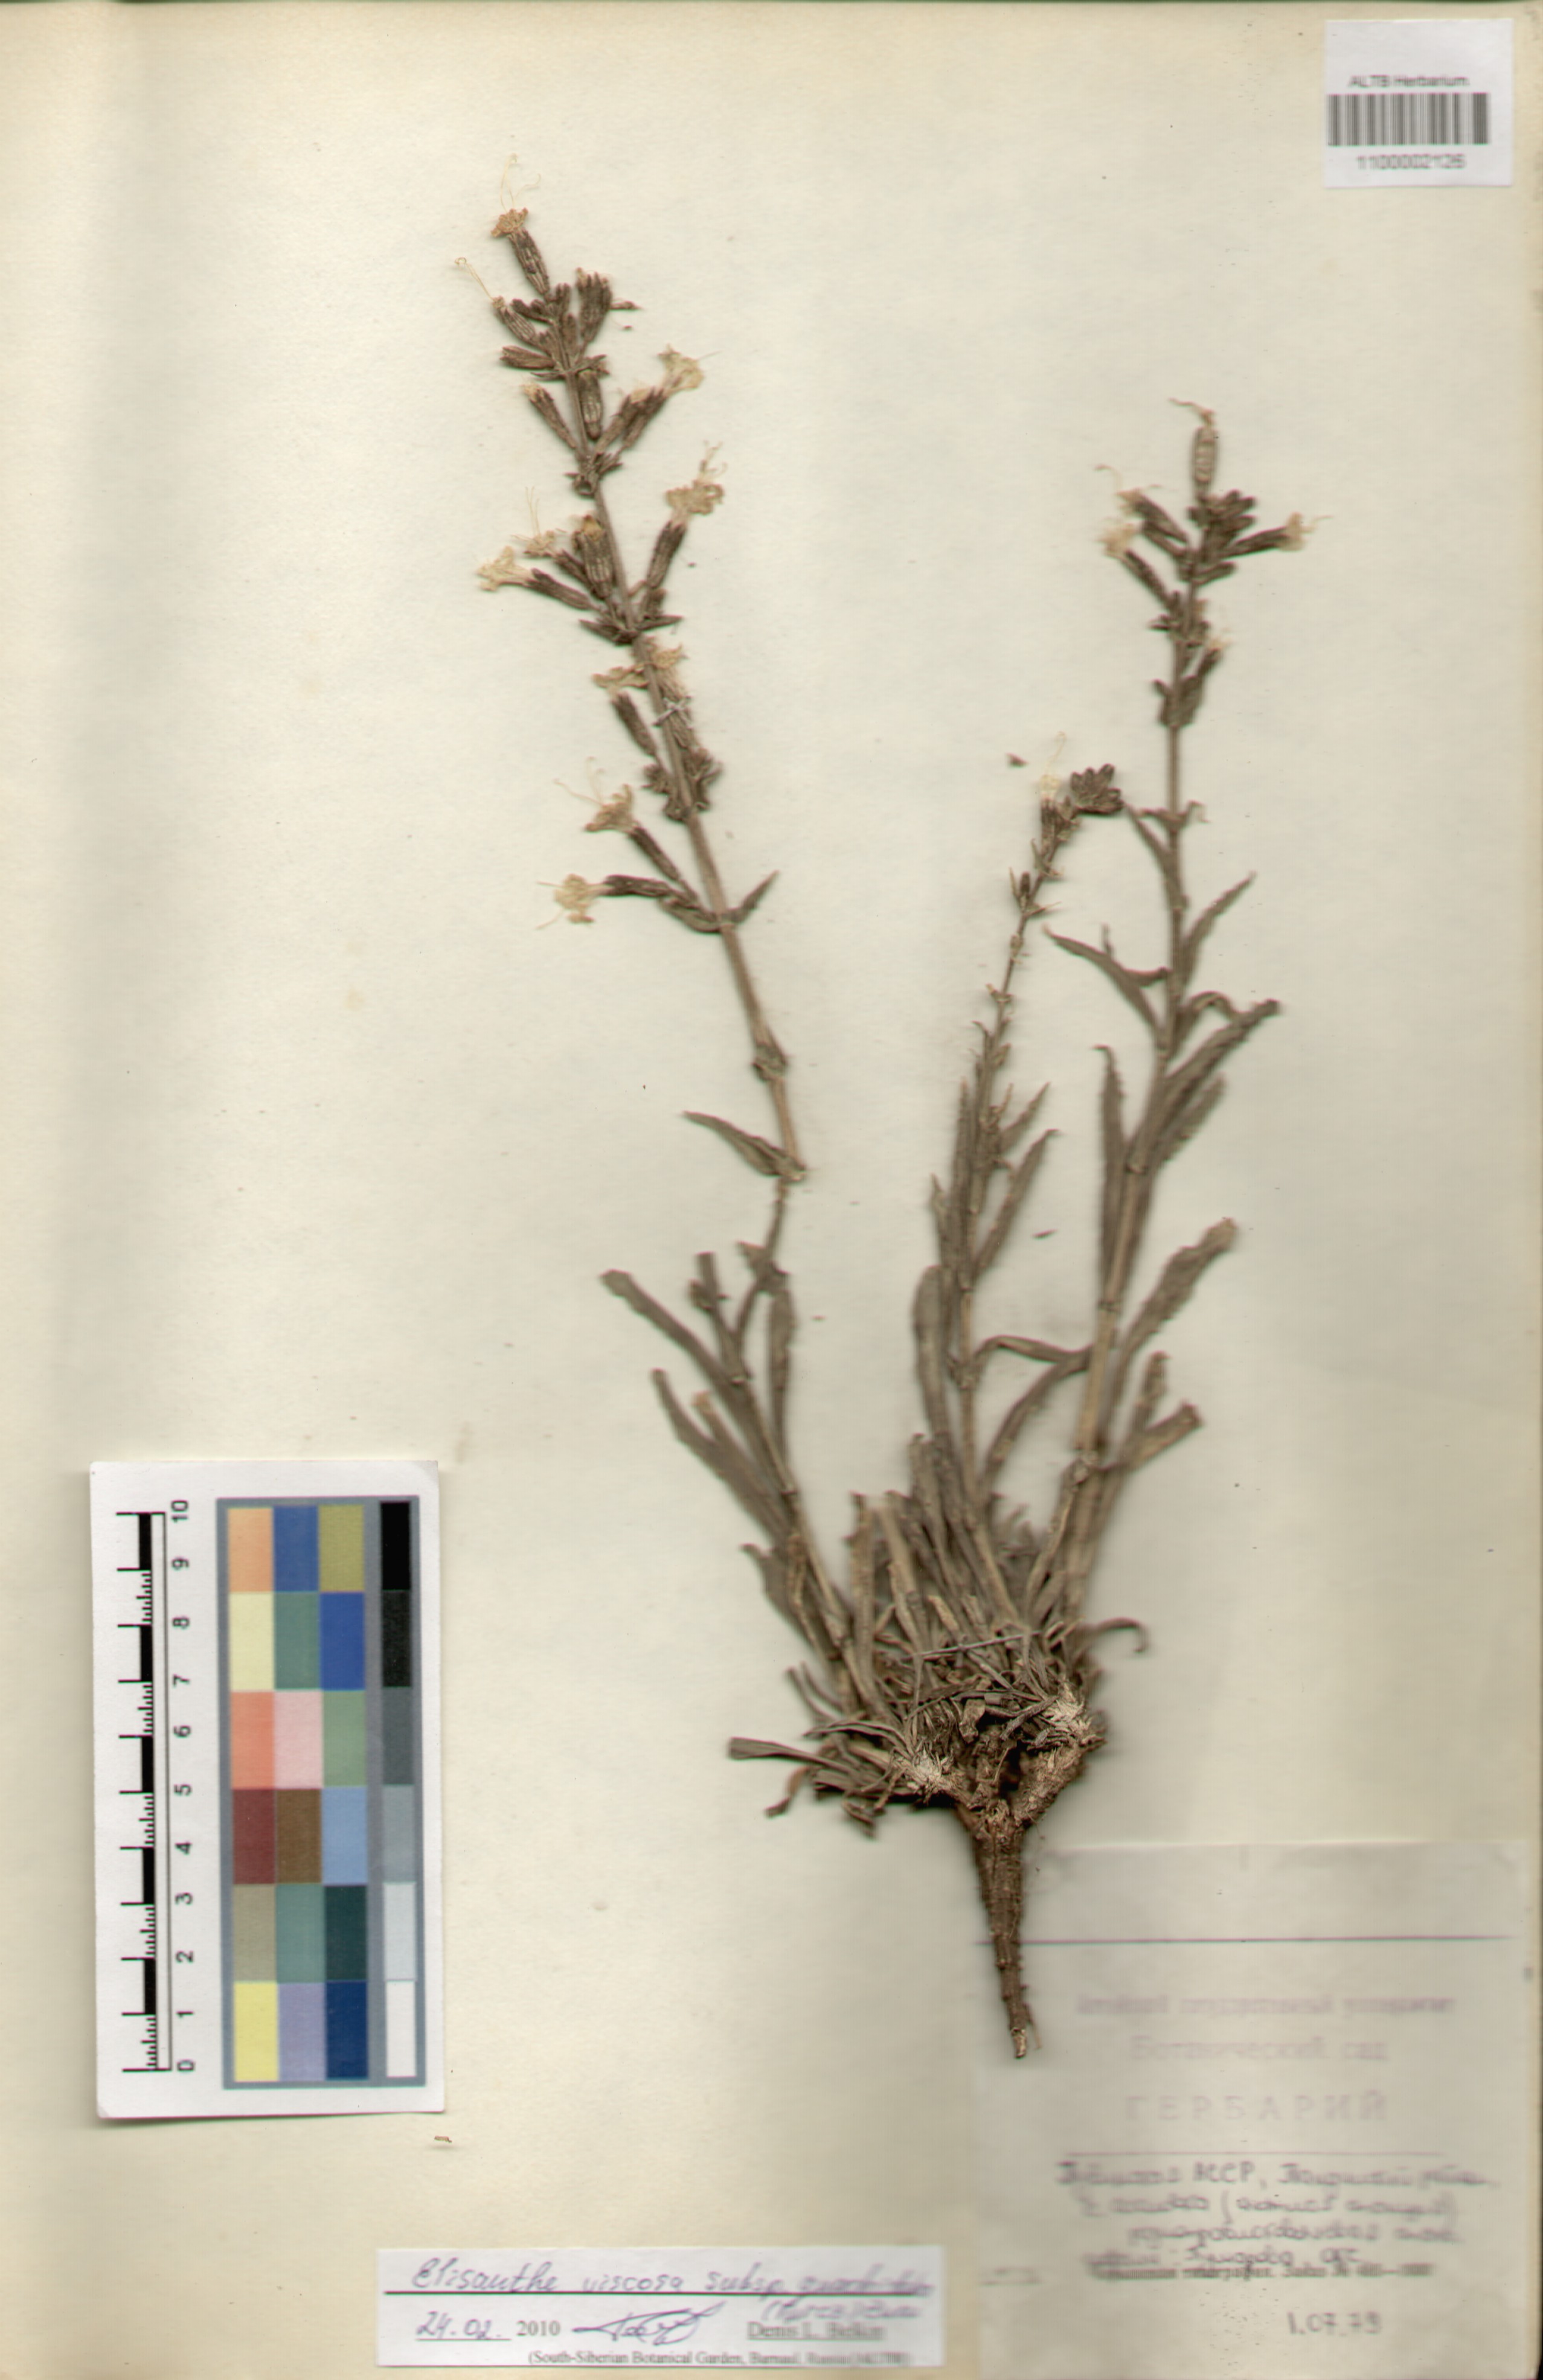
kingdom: Plantae
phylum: Tracheophyta
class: Magnoliopsida
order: Caryophyllales
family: Caryophyllaceae
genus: Silene
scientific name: Silene viscosa
